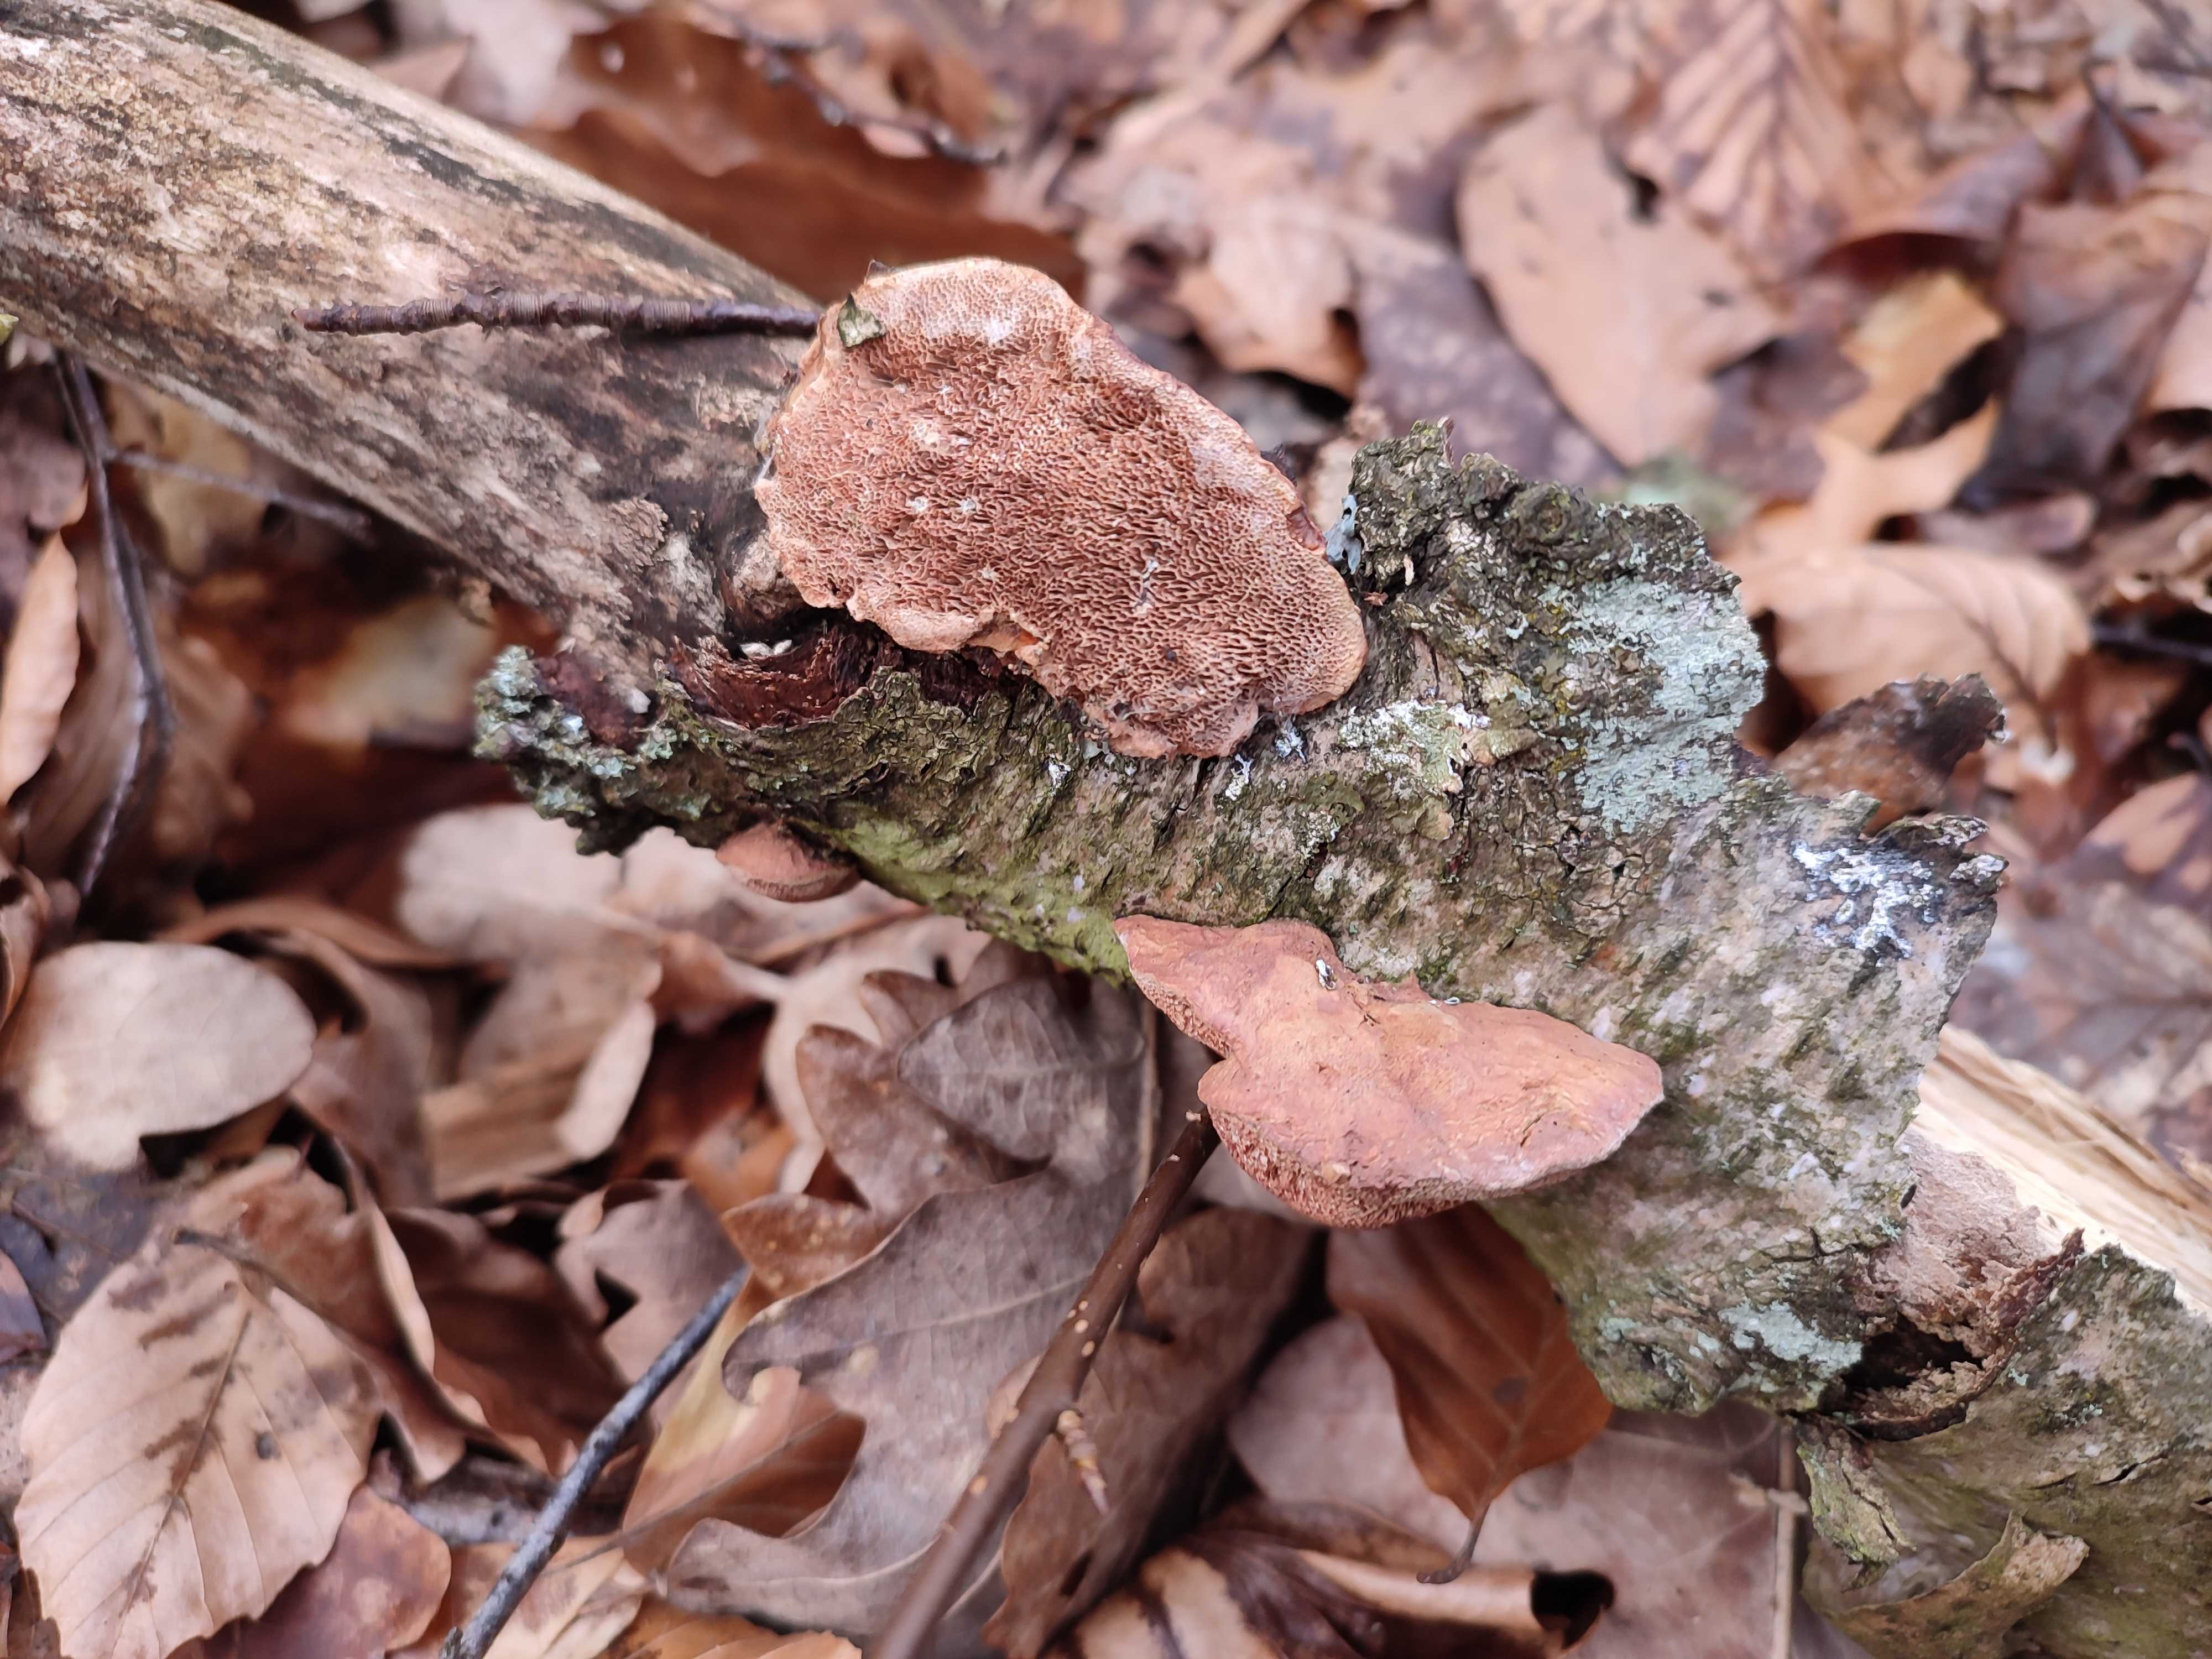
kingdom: Fungi
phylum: Basidiomycota
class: Agaricomycetes
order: Polyporales
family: Phanerochaetaceae
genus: Hapalopilus
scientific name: Hapalopilus rutilans
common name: rødlig okkerporesvamp
